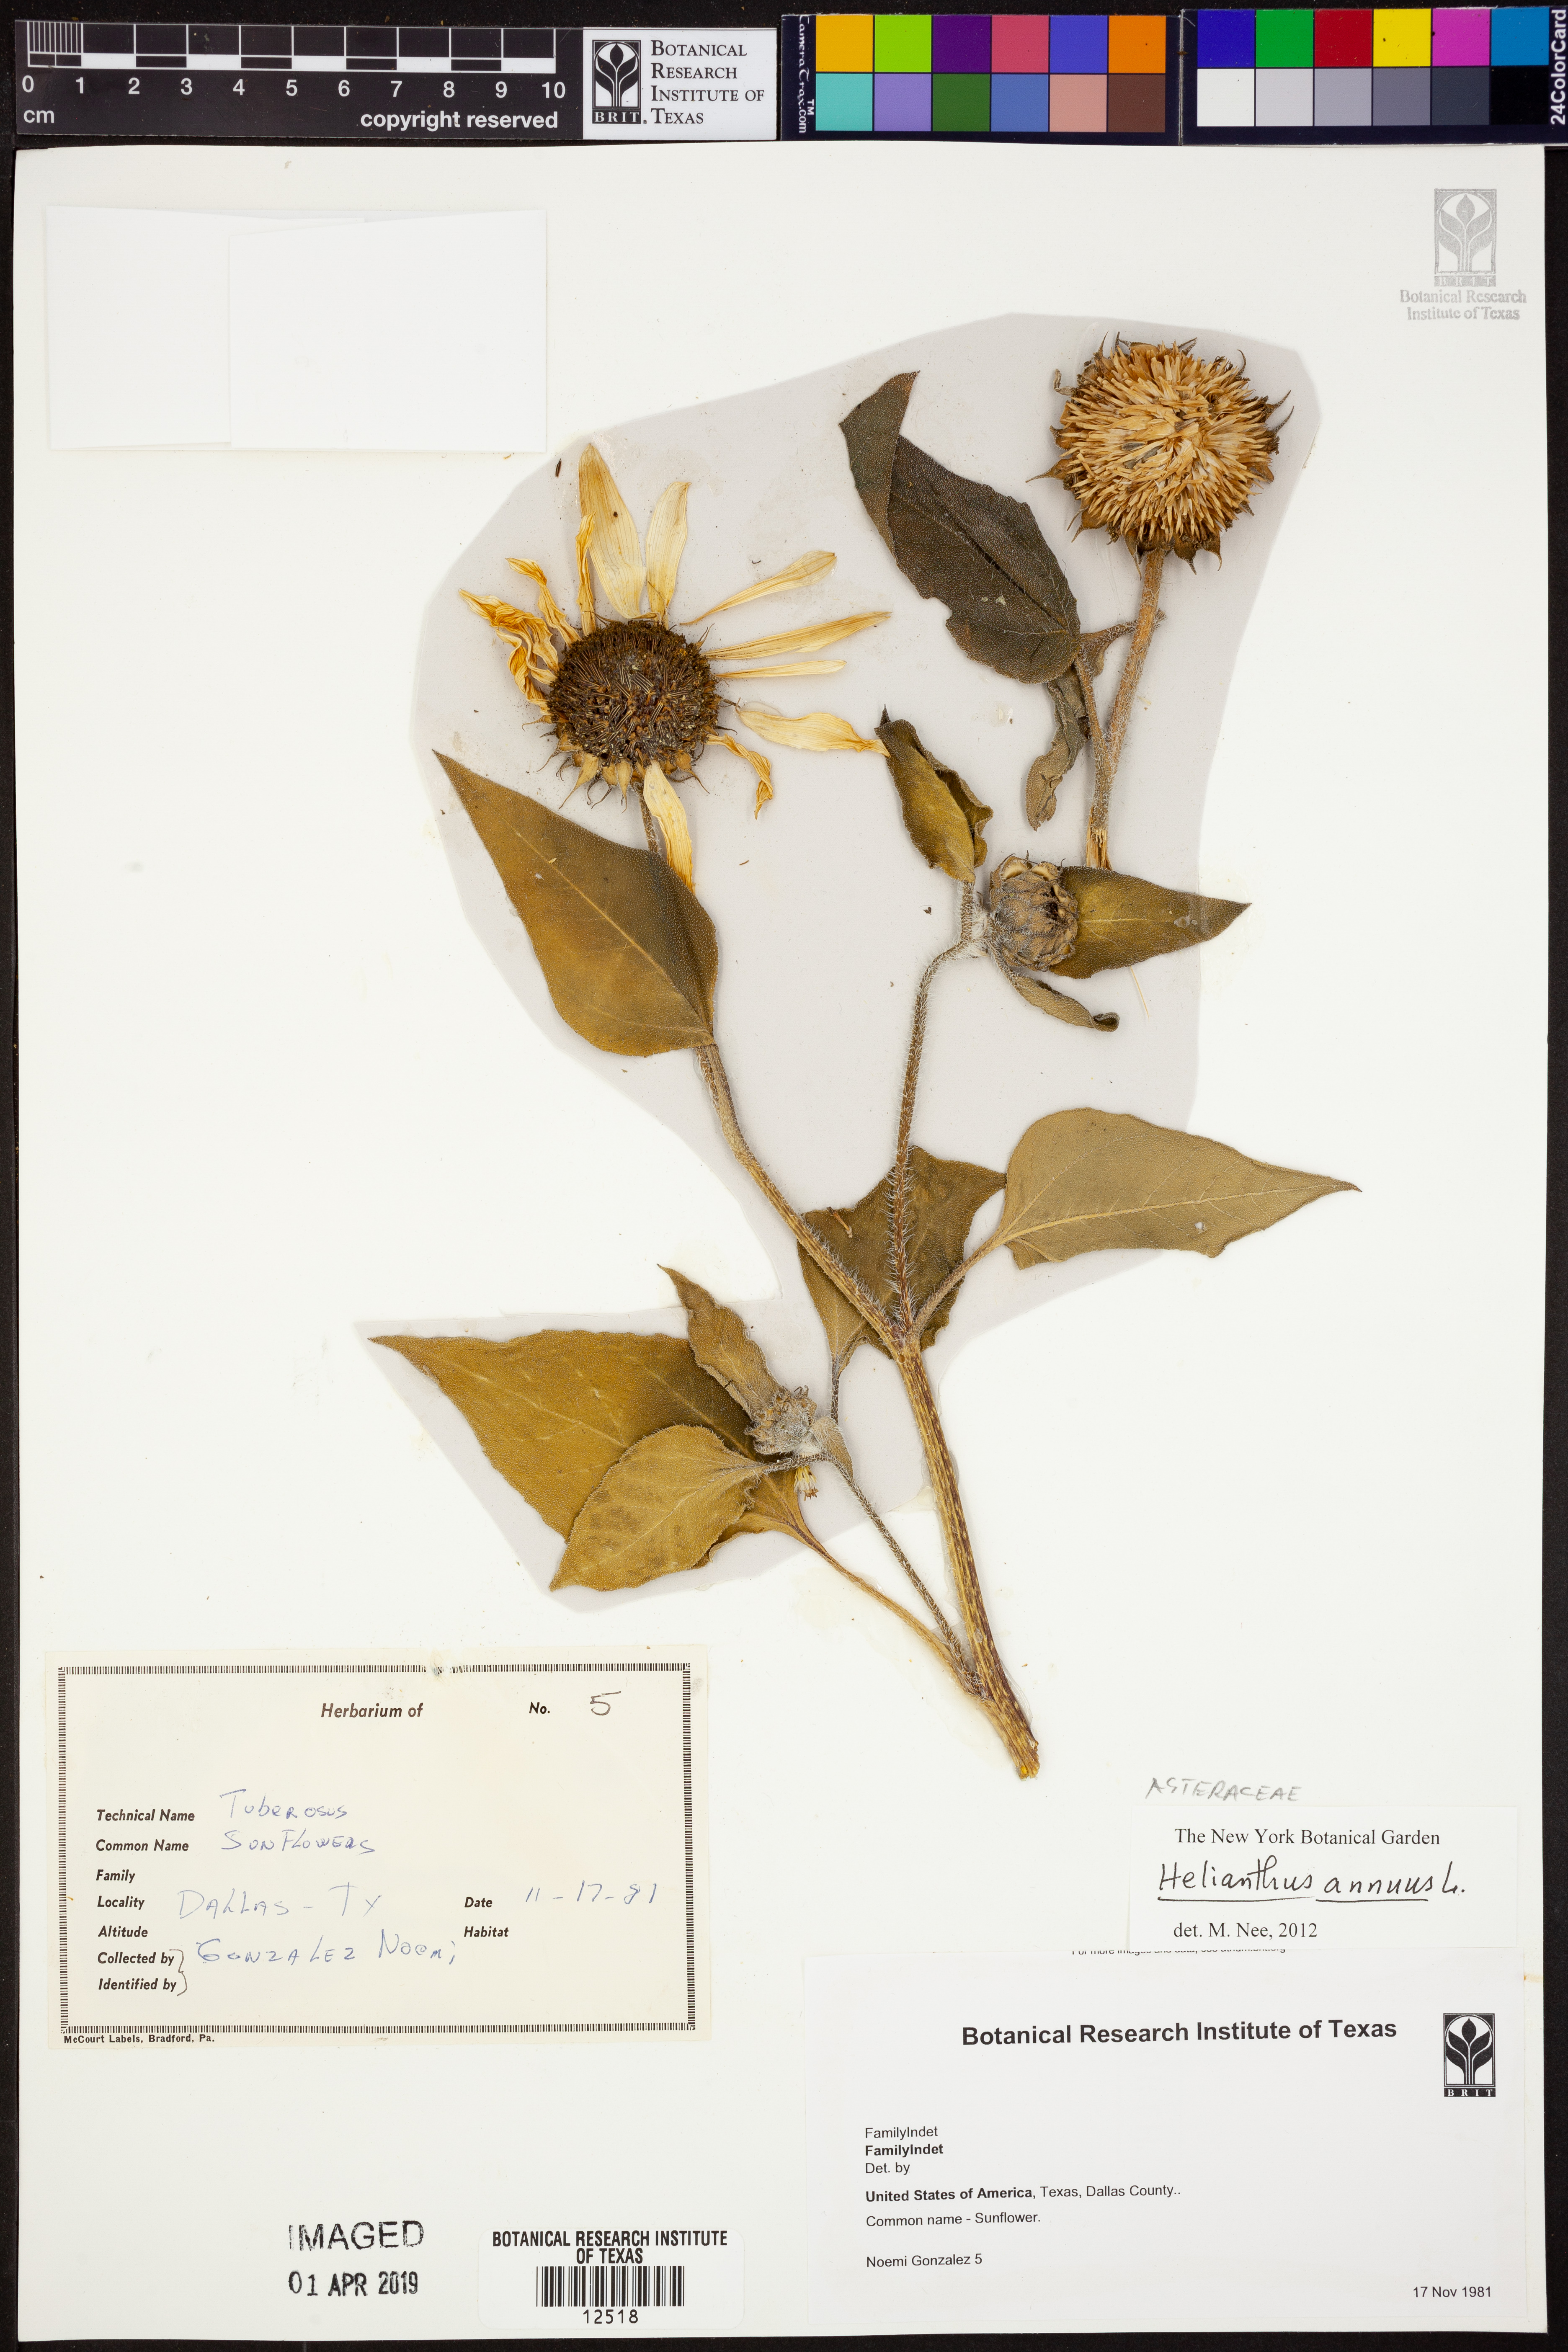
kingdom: Plantae
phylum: Tracheophyta
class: Magnoliopsida
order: Asterales
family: Asteraceae
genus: Helianthus
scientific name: Helianthus annuus
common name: Sunflower
